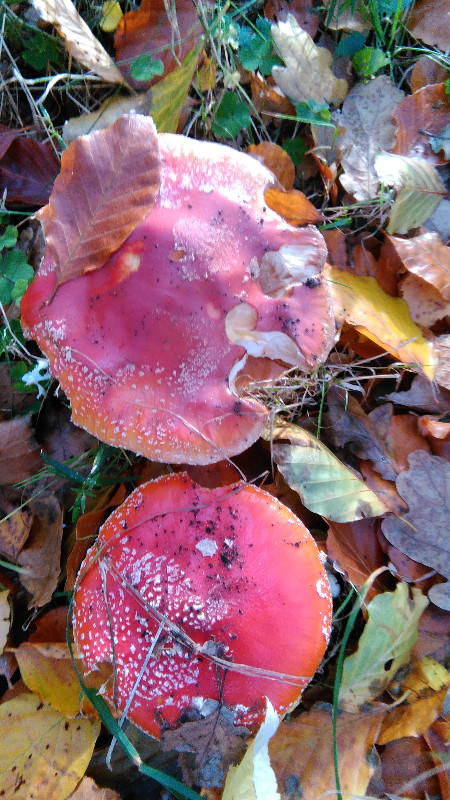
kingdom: Fungi
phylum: Basidiomycota
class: Agaricomycetes
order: Agaricales
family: Amanitaceae
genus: Amanita
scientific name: Amanita muscaria
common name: rød fluesvamp
